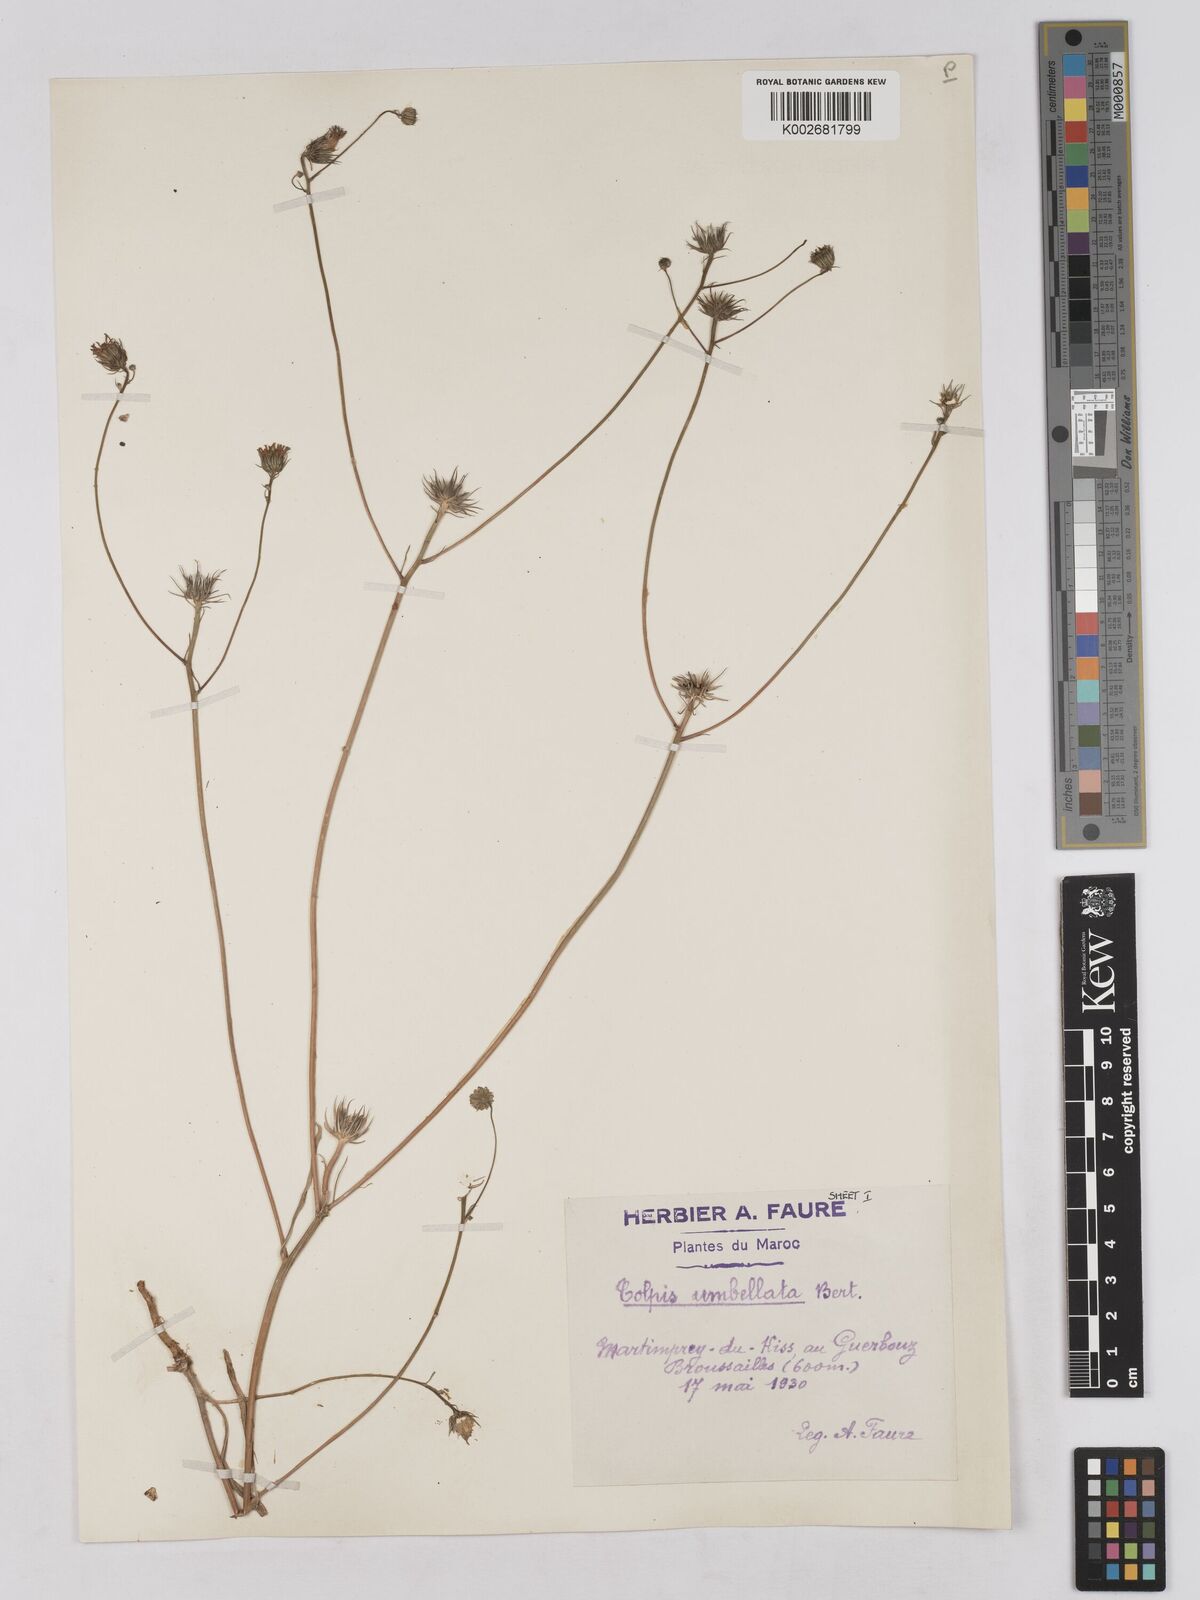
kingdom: Plantae
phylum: Tracheophyta
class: Magnoliopsida
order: Asterales
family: Asteraceae
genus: Tolpis
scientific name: Tolpis umbellata
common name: Yellow hawkweed
